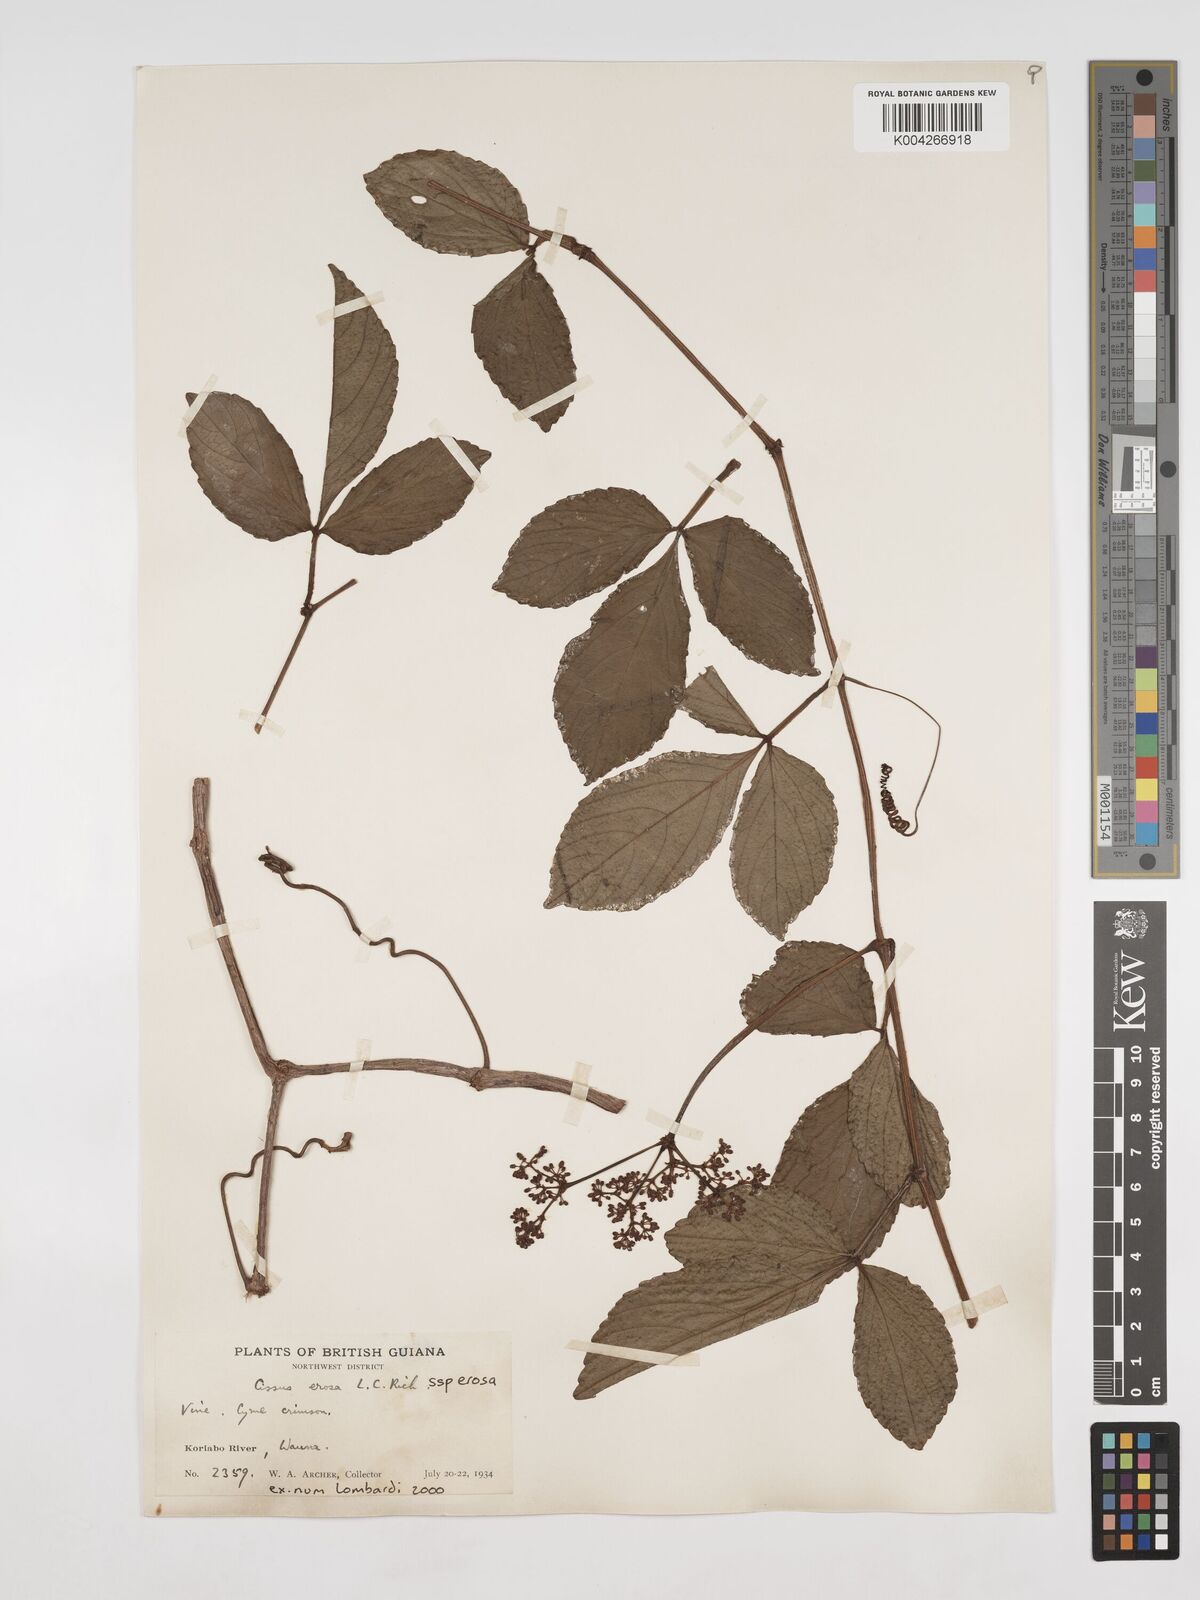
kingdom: Plantae
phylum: Tracheophyta
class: Magnoliopsida
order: Vitales
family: Vitaceae
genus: Cissus
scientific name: Cissus erosa
